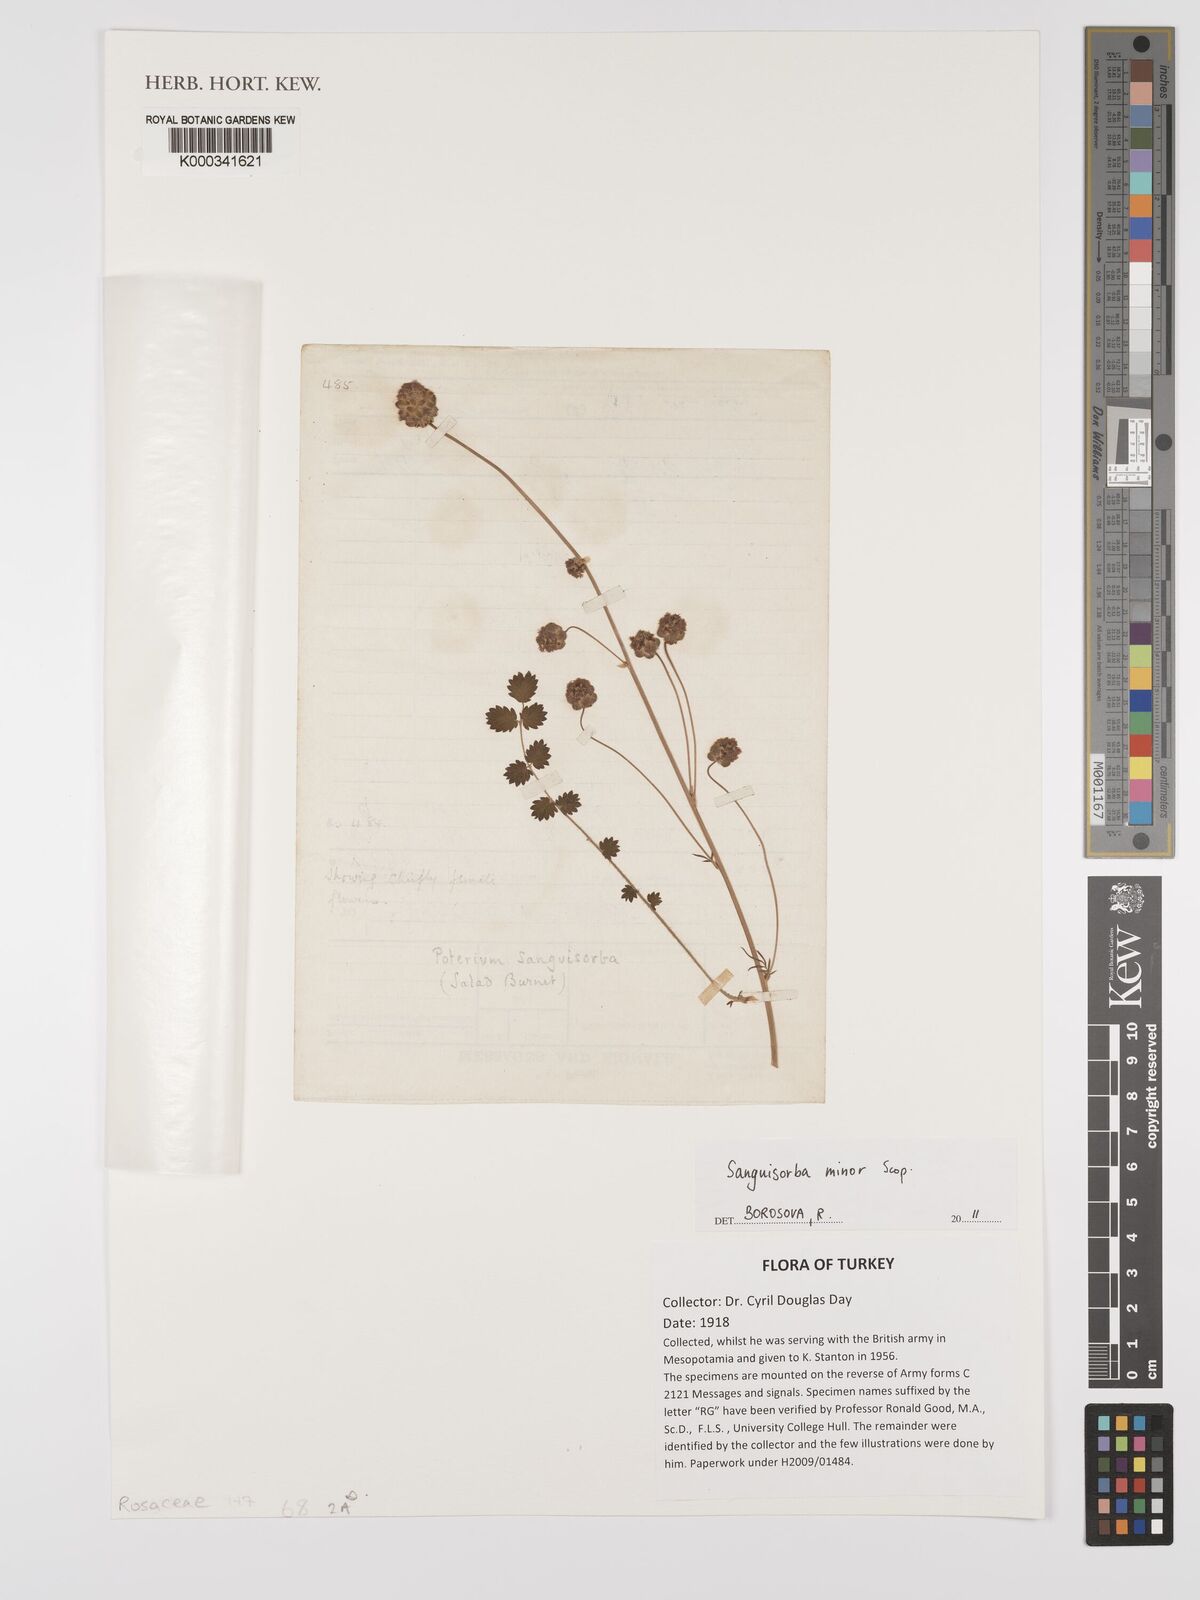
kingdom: Plantae
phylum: Tracheophyta
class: Magnoliopsida
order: Rosales
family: Rosaceae
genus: Poterium
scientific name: Poterium sanguisorba
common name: Salad burnet
